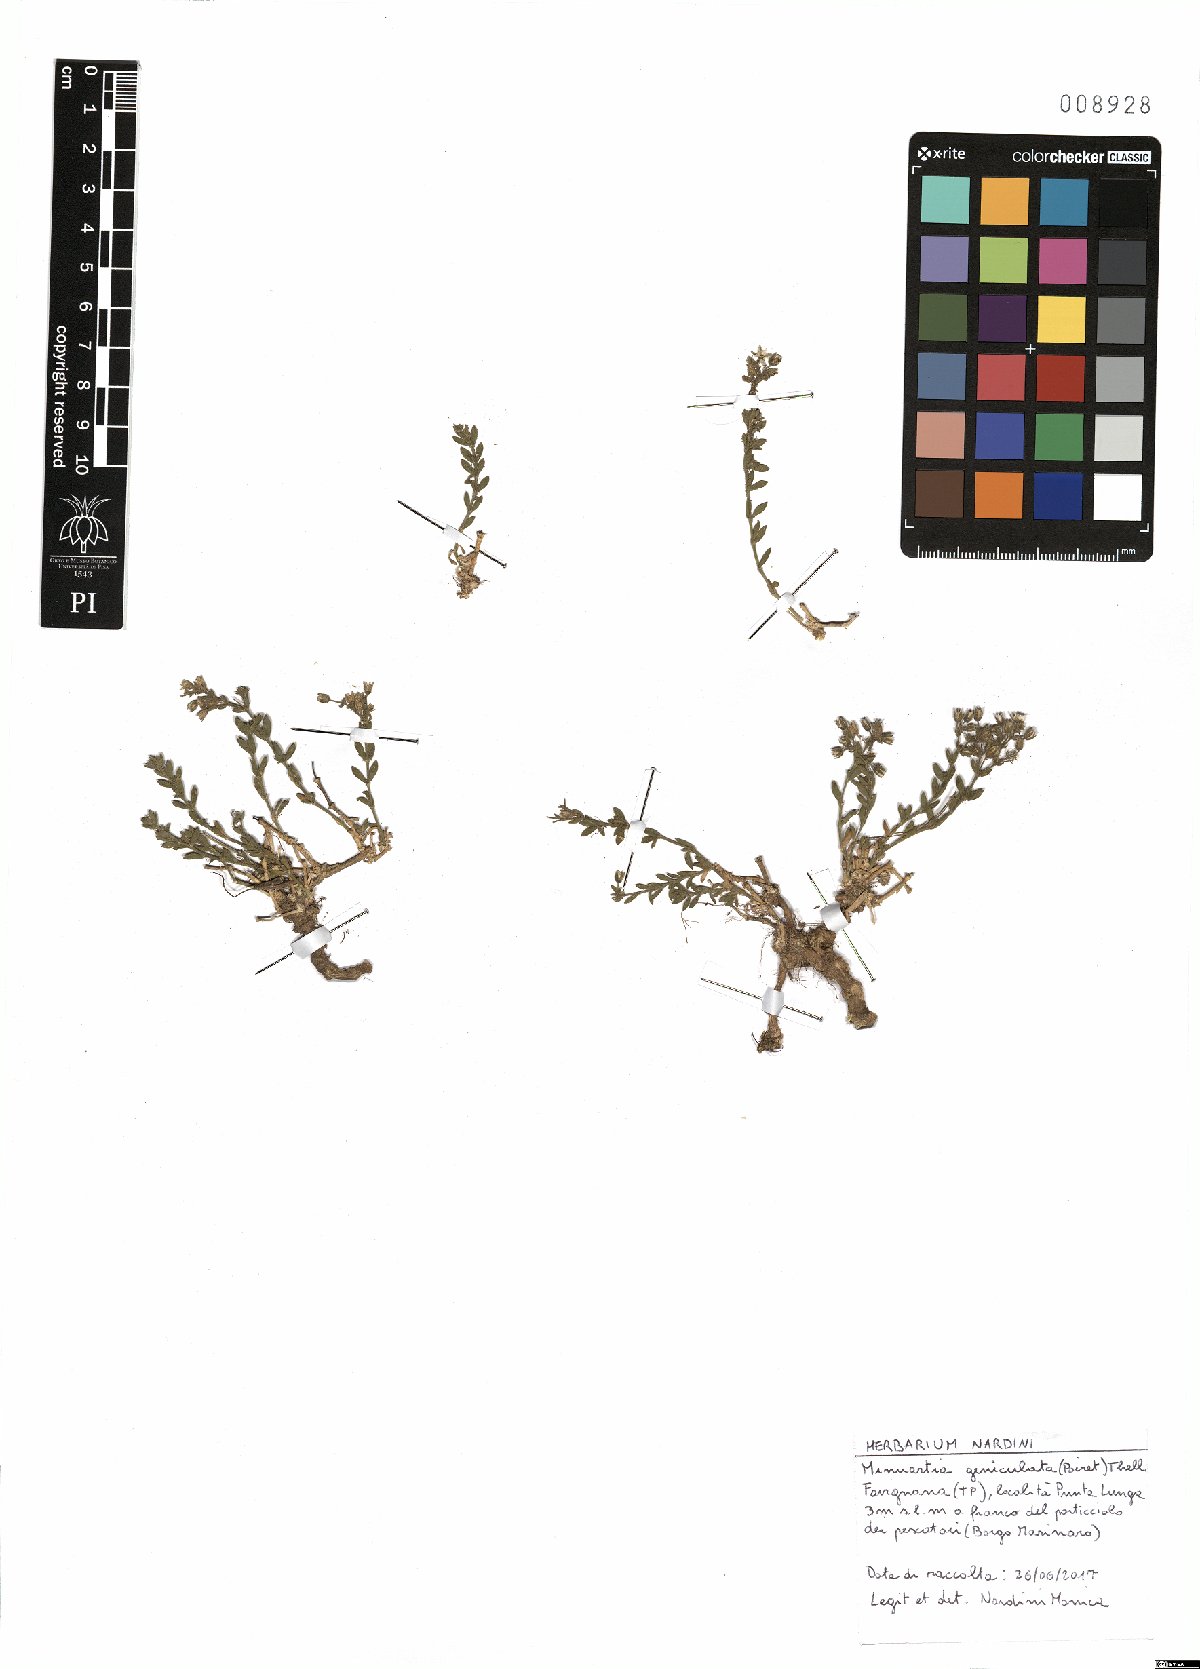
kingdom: Plantae
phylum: Tracheophyta
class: Magnoliopsida
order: Caryophyllales
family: Caryophyllaceae
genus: Rhodalsine
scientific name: Rhodalsine geniculata
